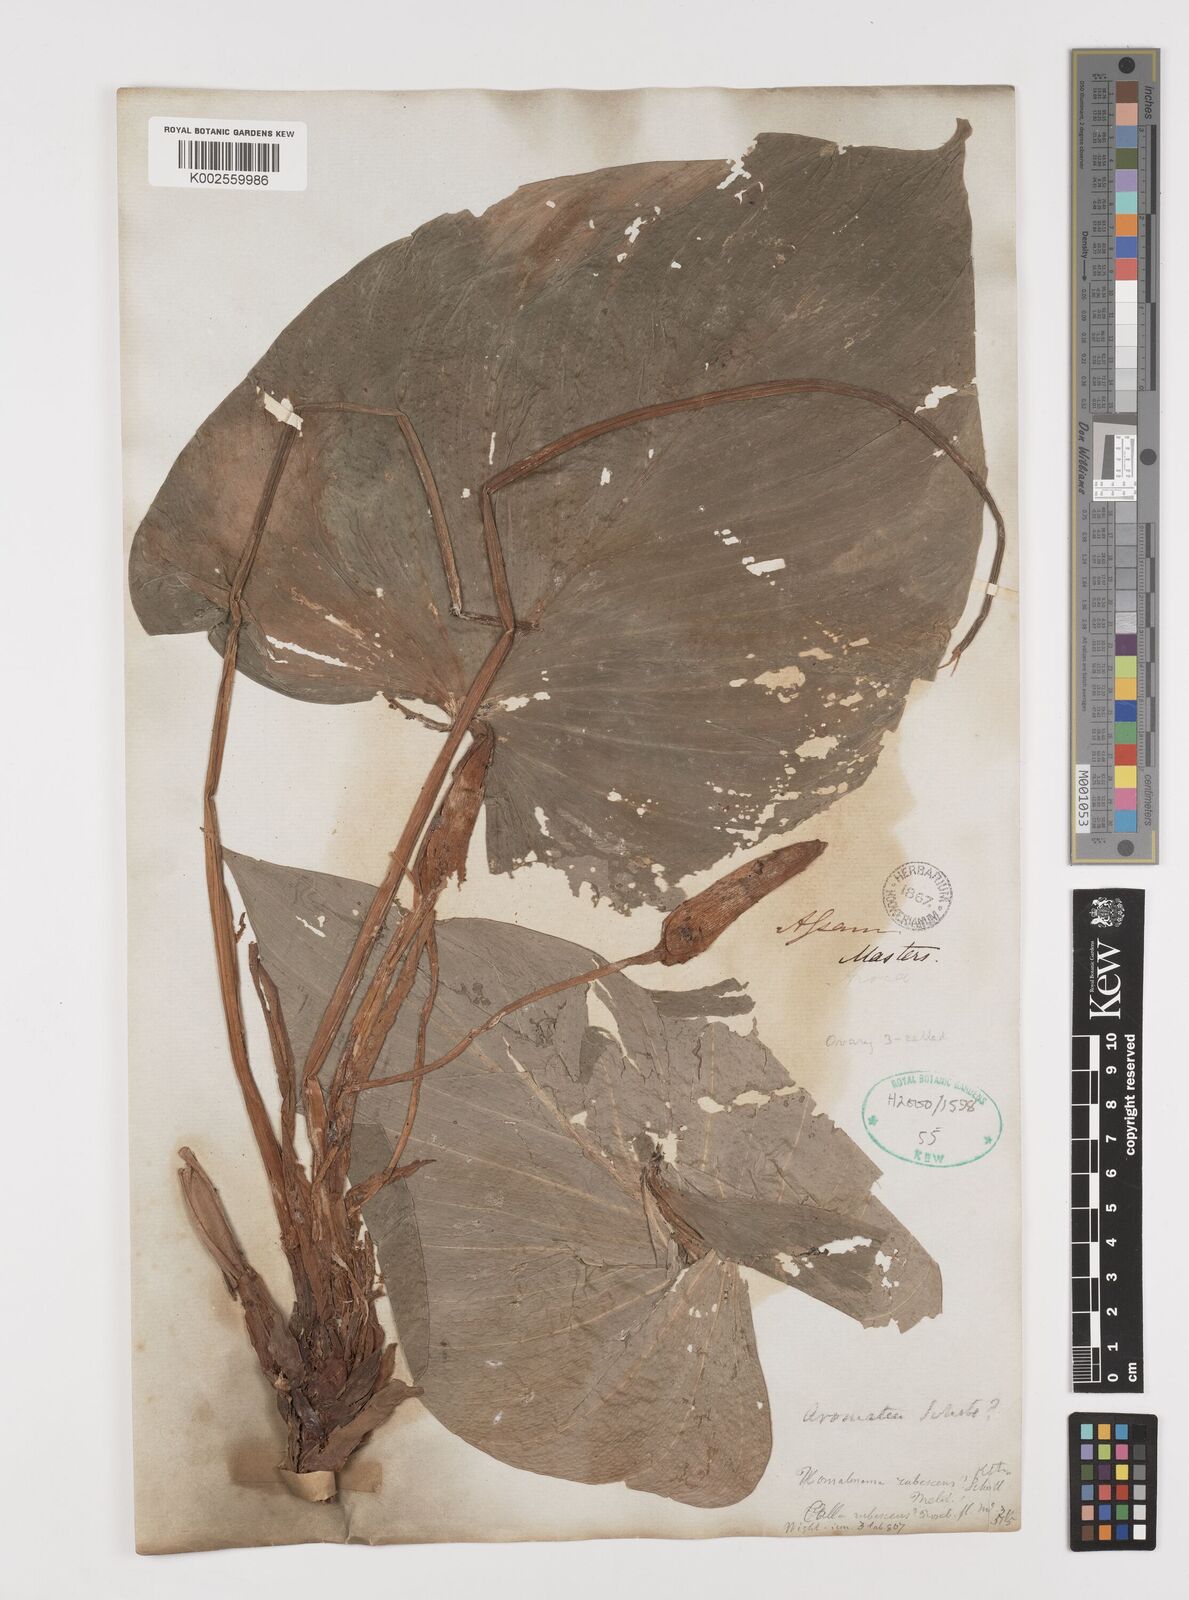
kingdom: Plantae
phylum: Tracheophyta
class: Liliopsida
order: Alismatales
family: Araceae
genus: Homalomena
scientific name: Homalomena rubescens
